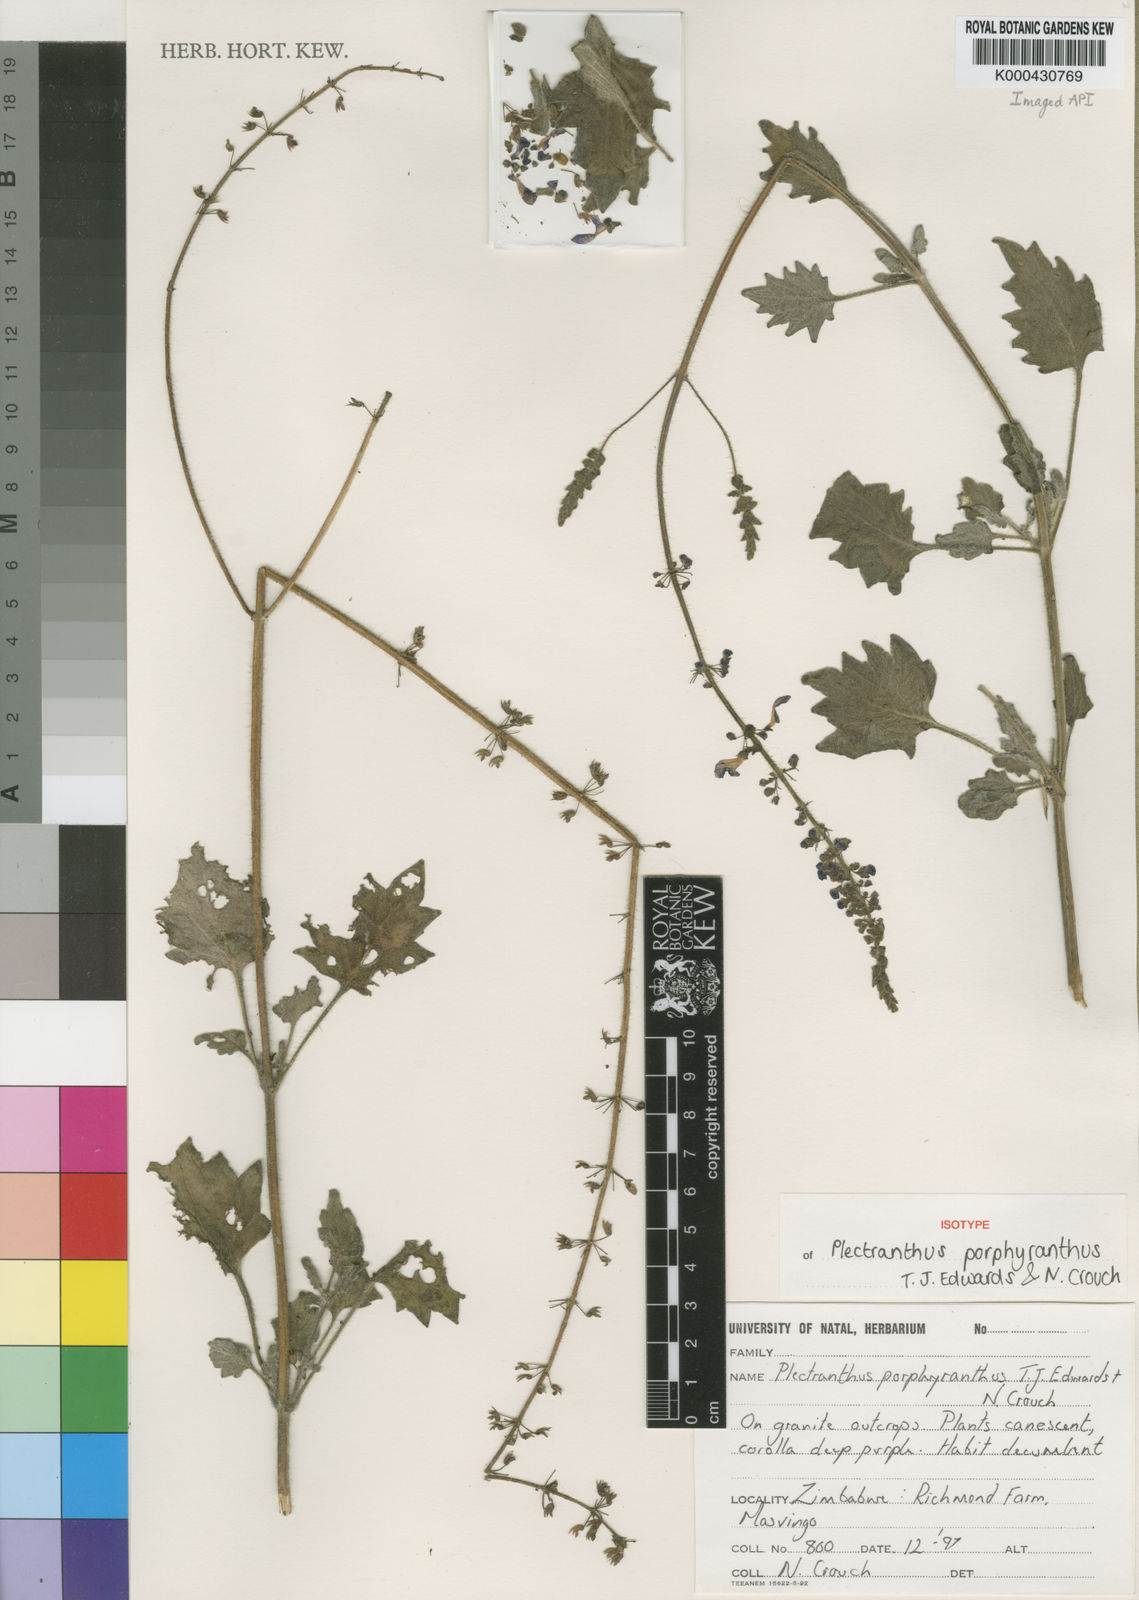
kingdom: Plantae
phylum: Tracheophyta
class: Magnoliopsida
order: Lamiales
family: Lamiaceae
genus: Coleus
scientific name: Coleus porphyranthus
